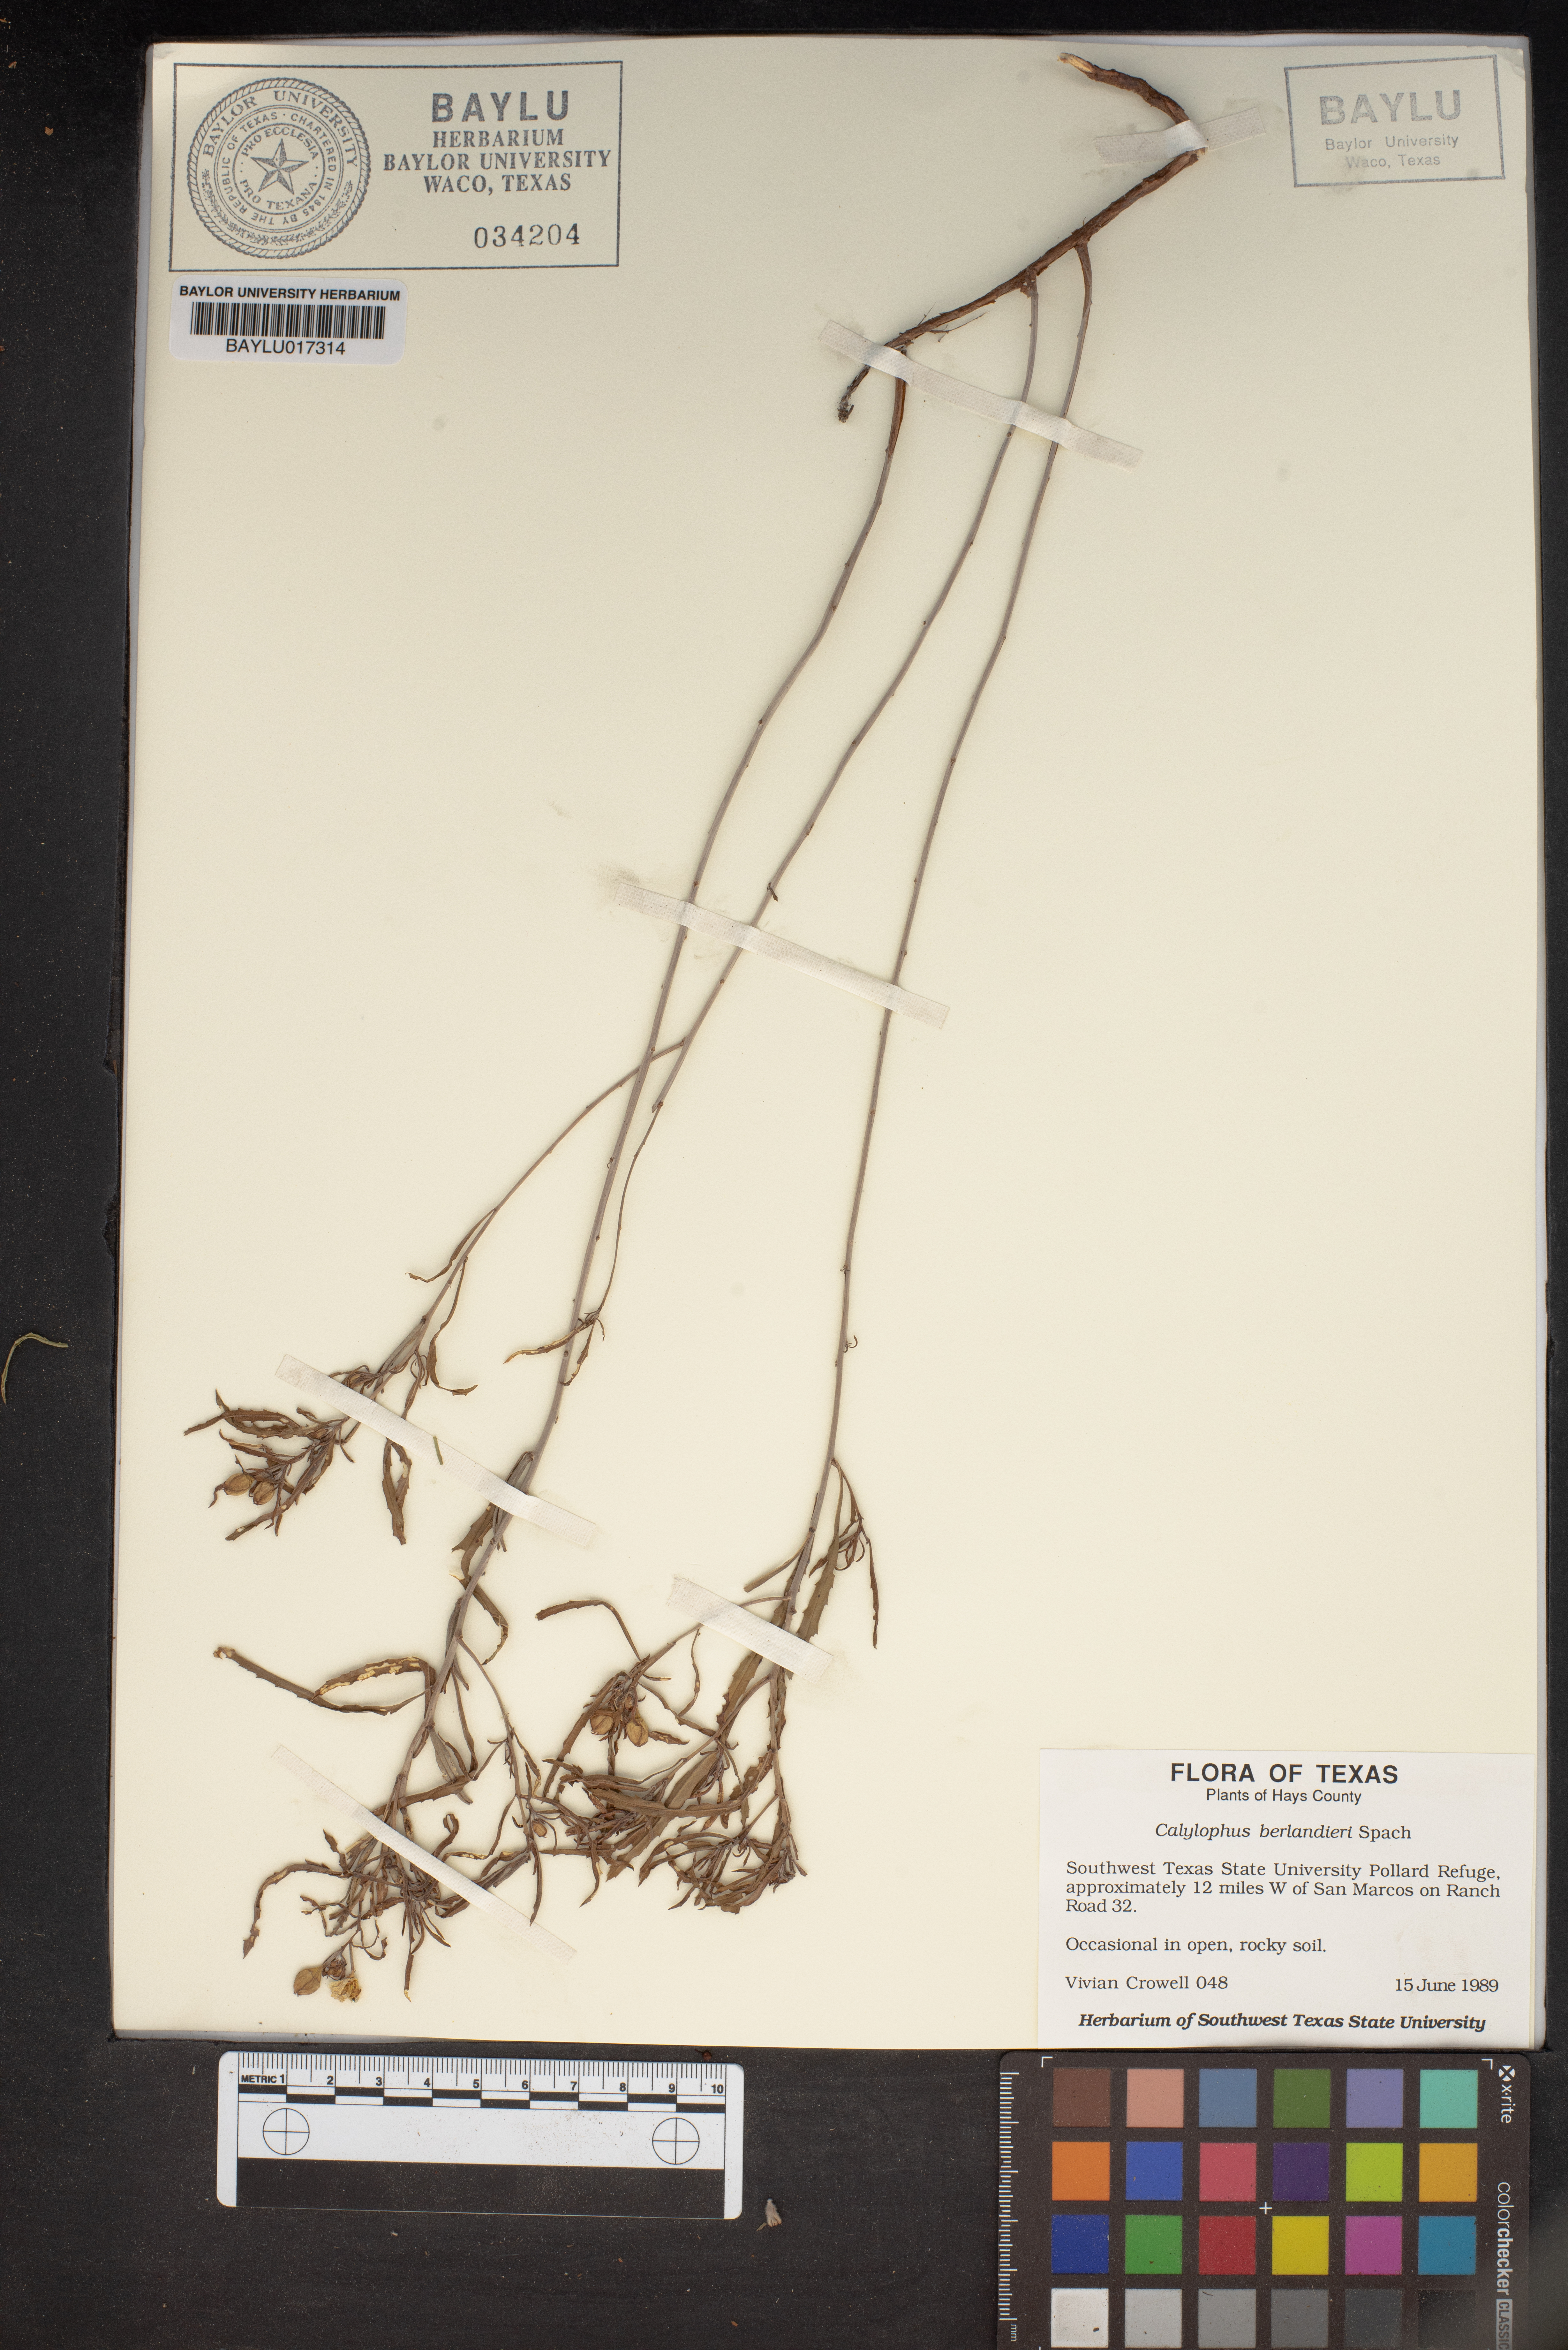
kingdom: Plantae
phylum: Tracheophyta
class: Magnoliopsida
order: Myrtales
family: Onagraceae
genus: Oenothera
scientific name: Oenothera capillifolia
